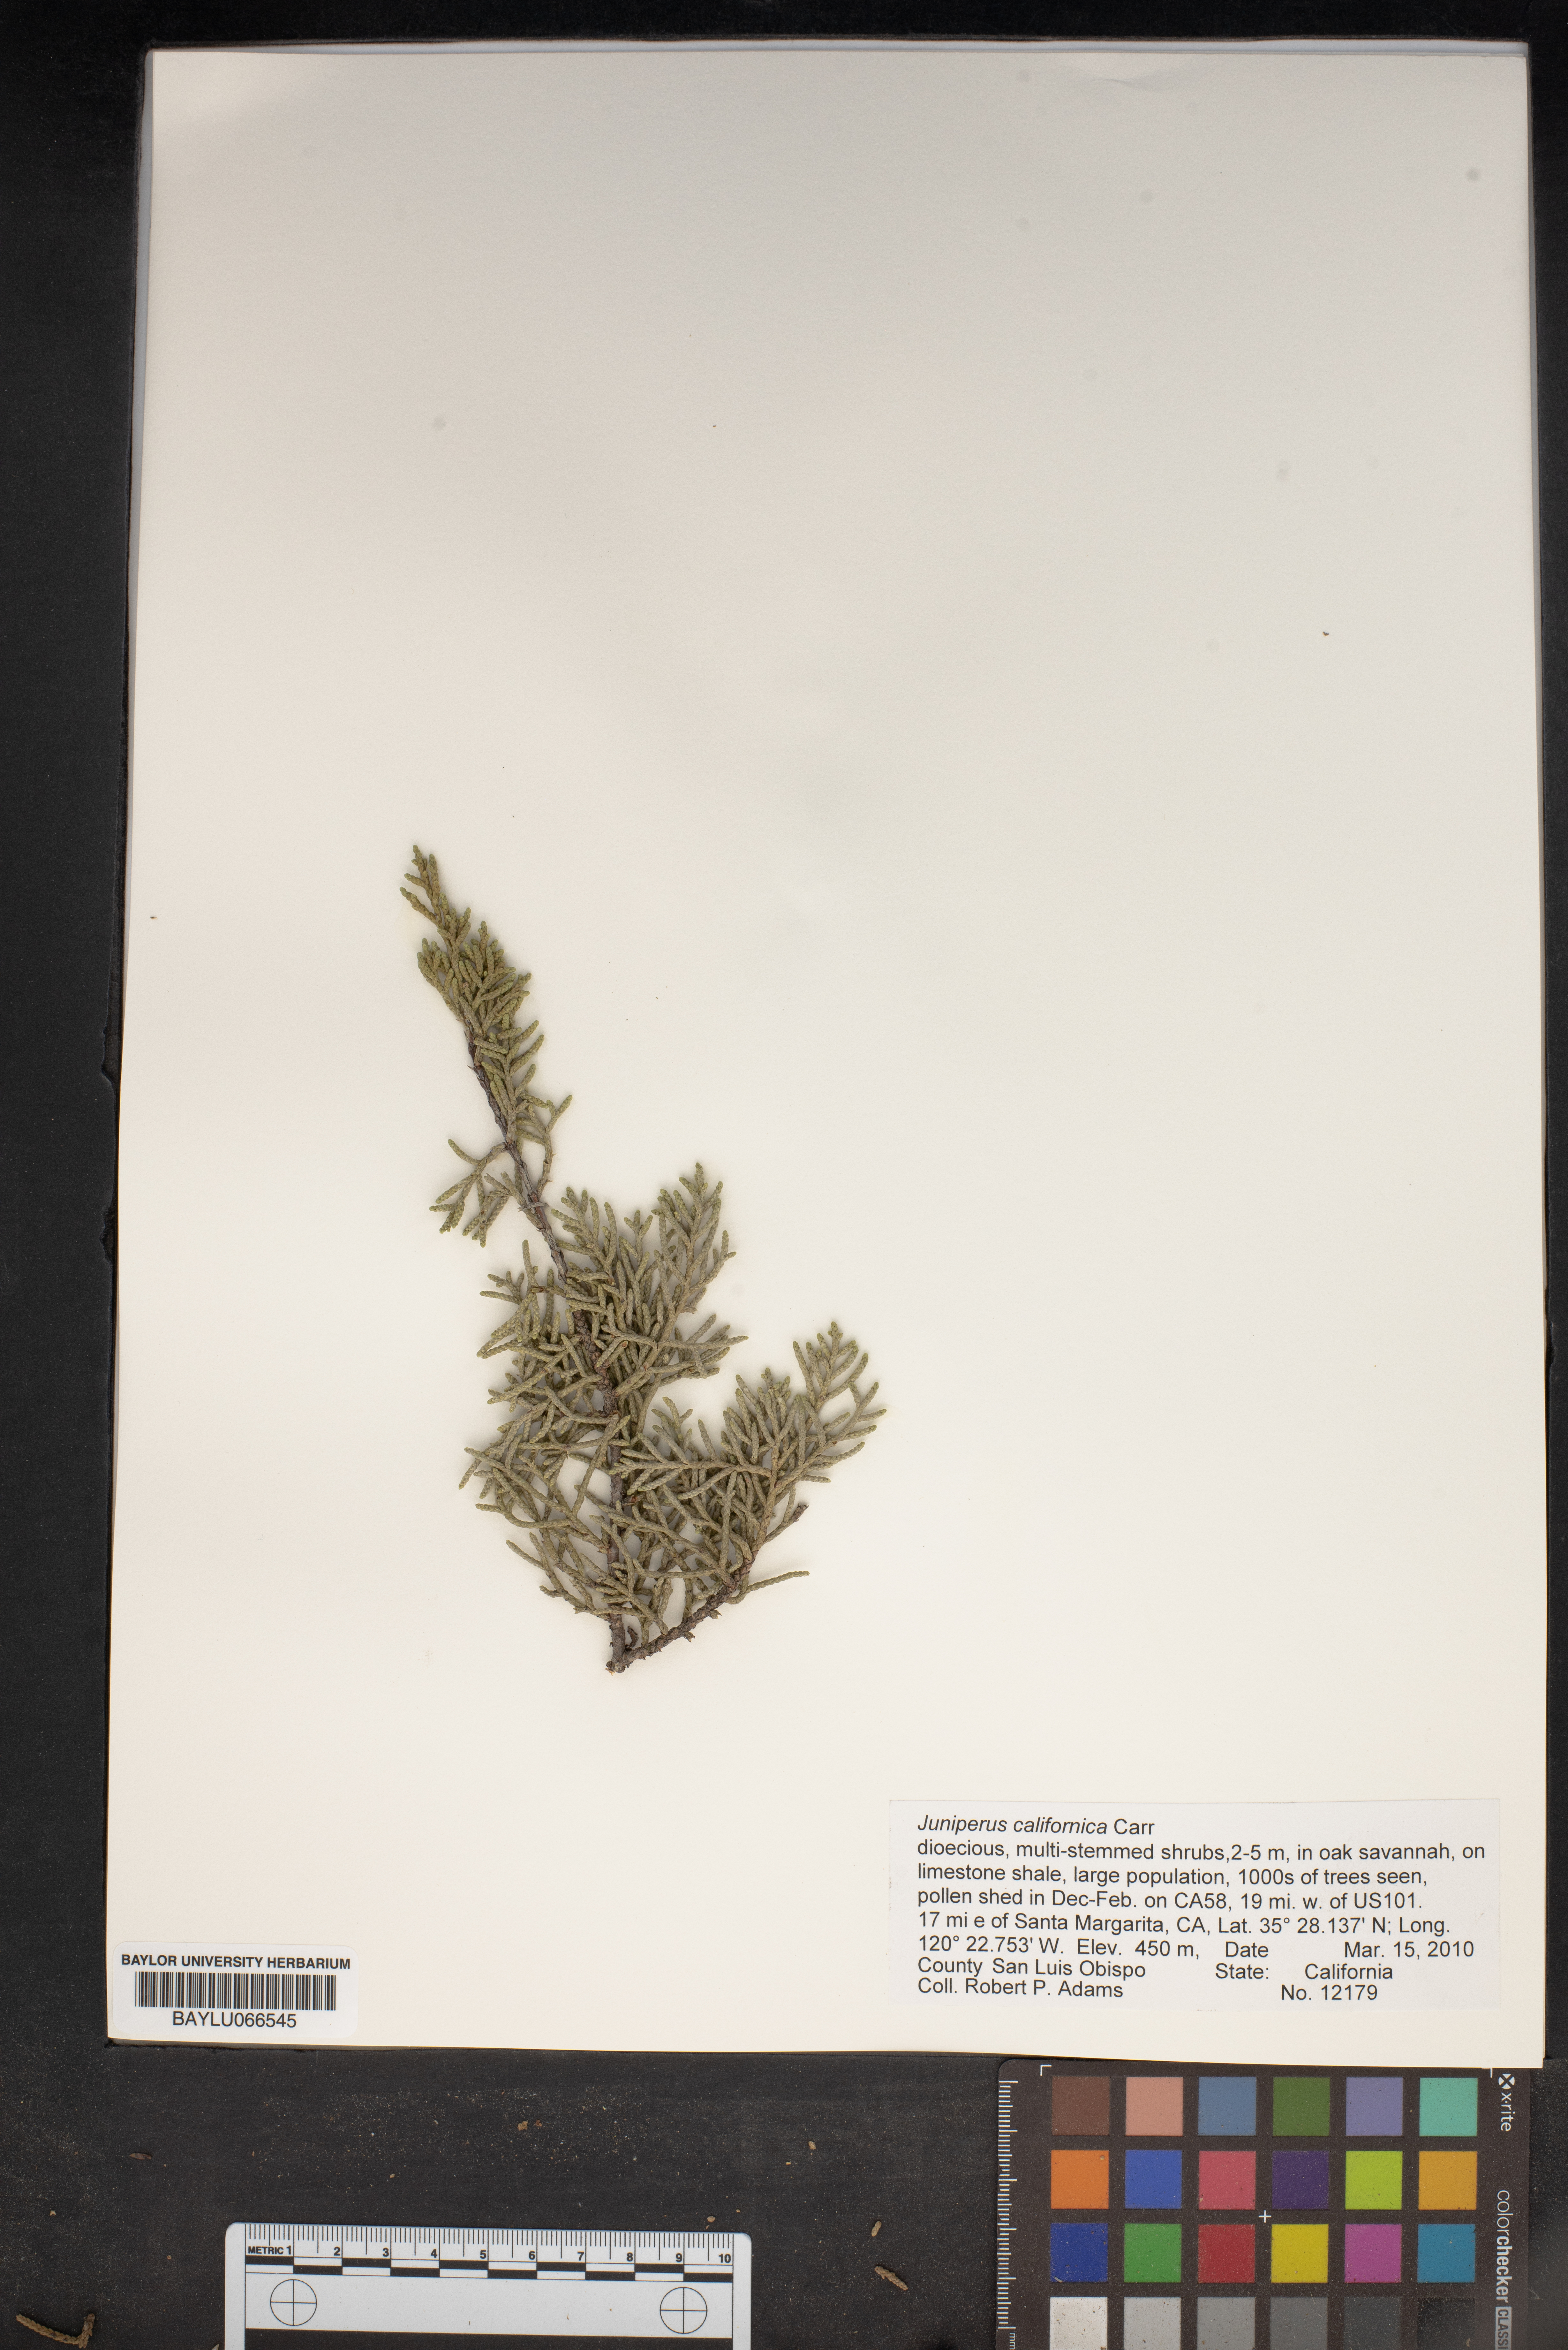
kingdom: Plantae
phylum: Tracheophyta
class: Pinopsida
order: Pinales
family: Cupressaceae
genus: Juniperus
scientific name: Juniperus californica
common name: California juniper
